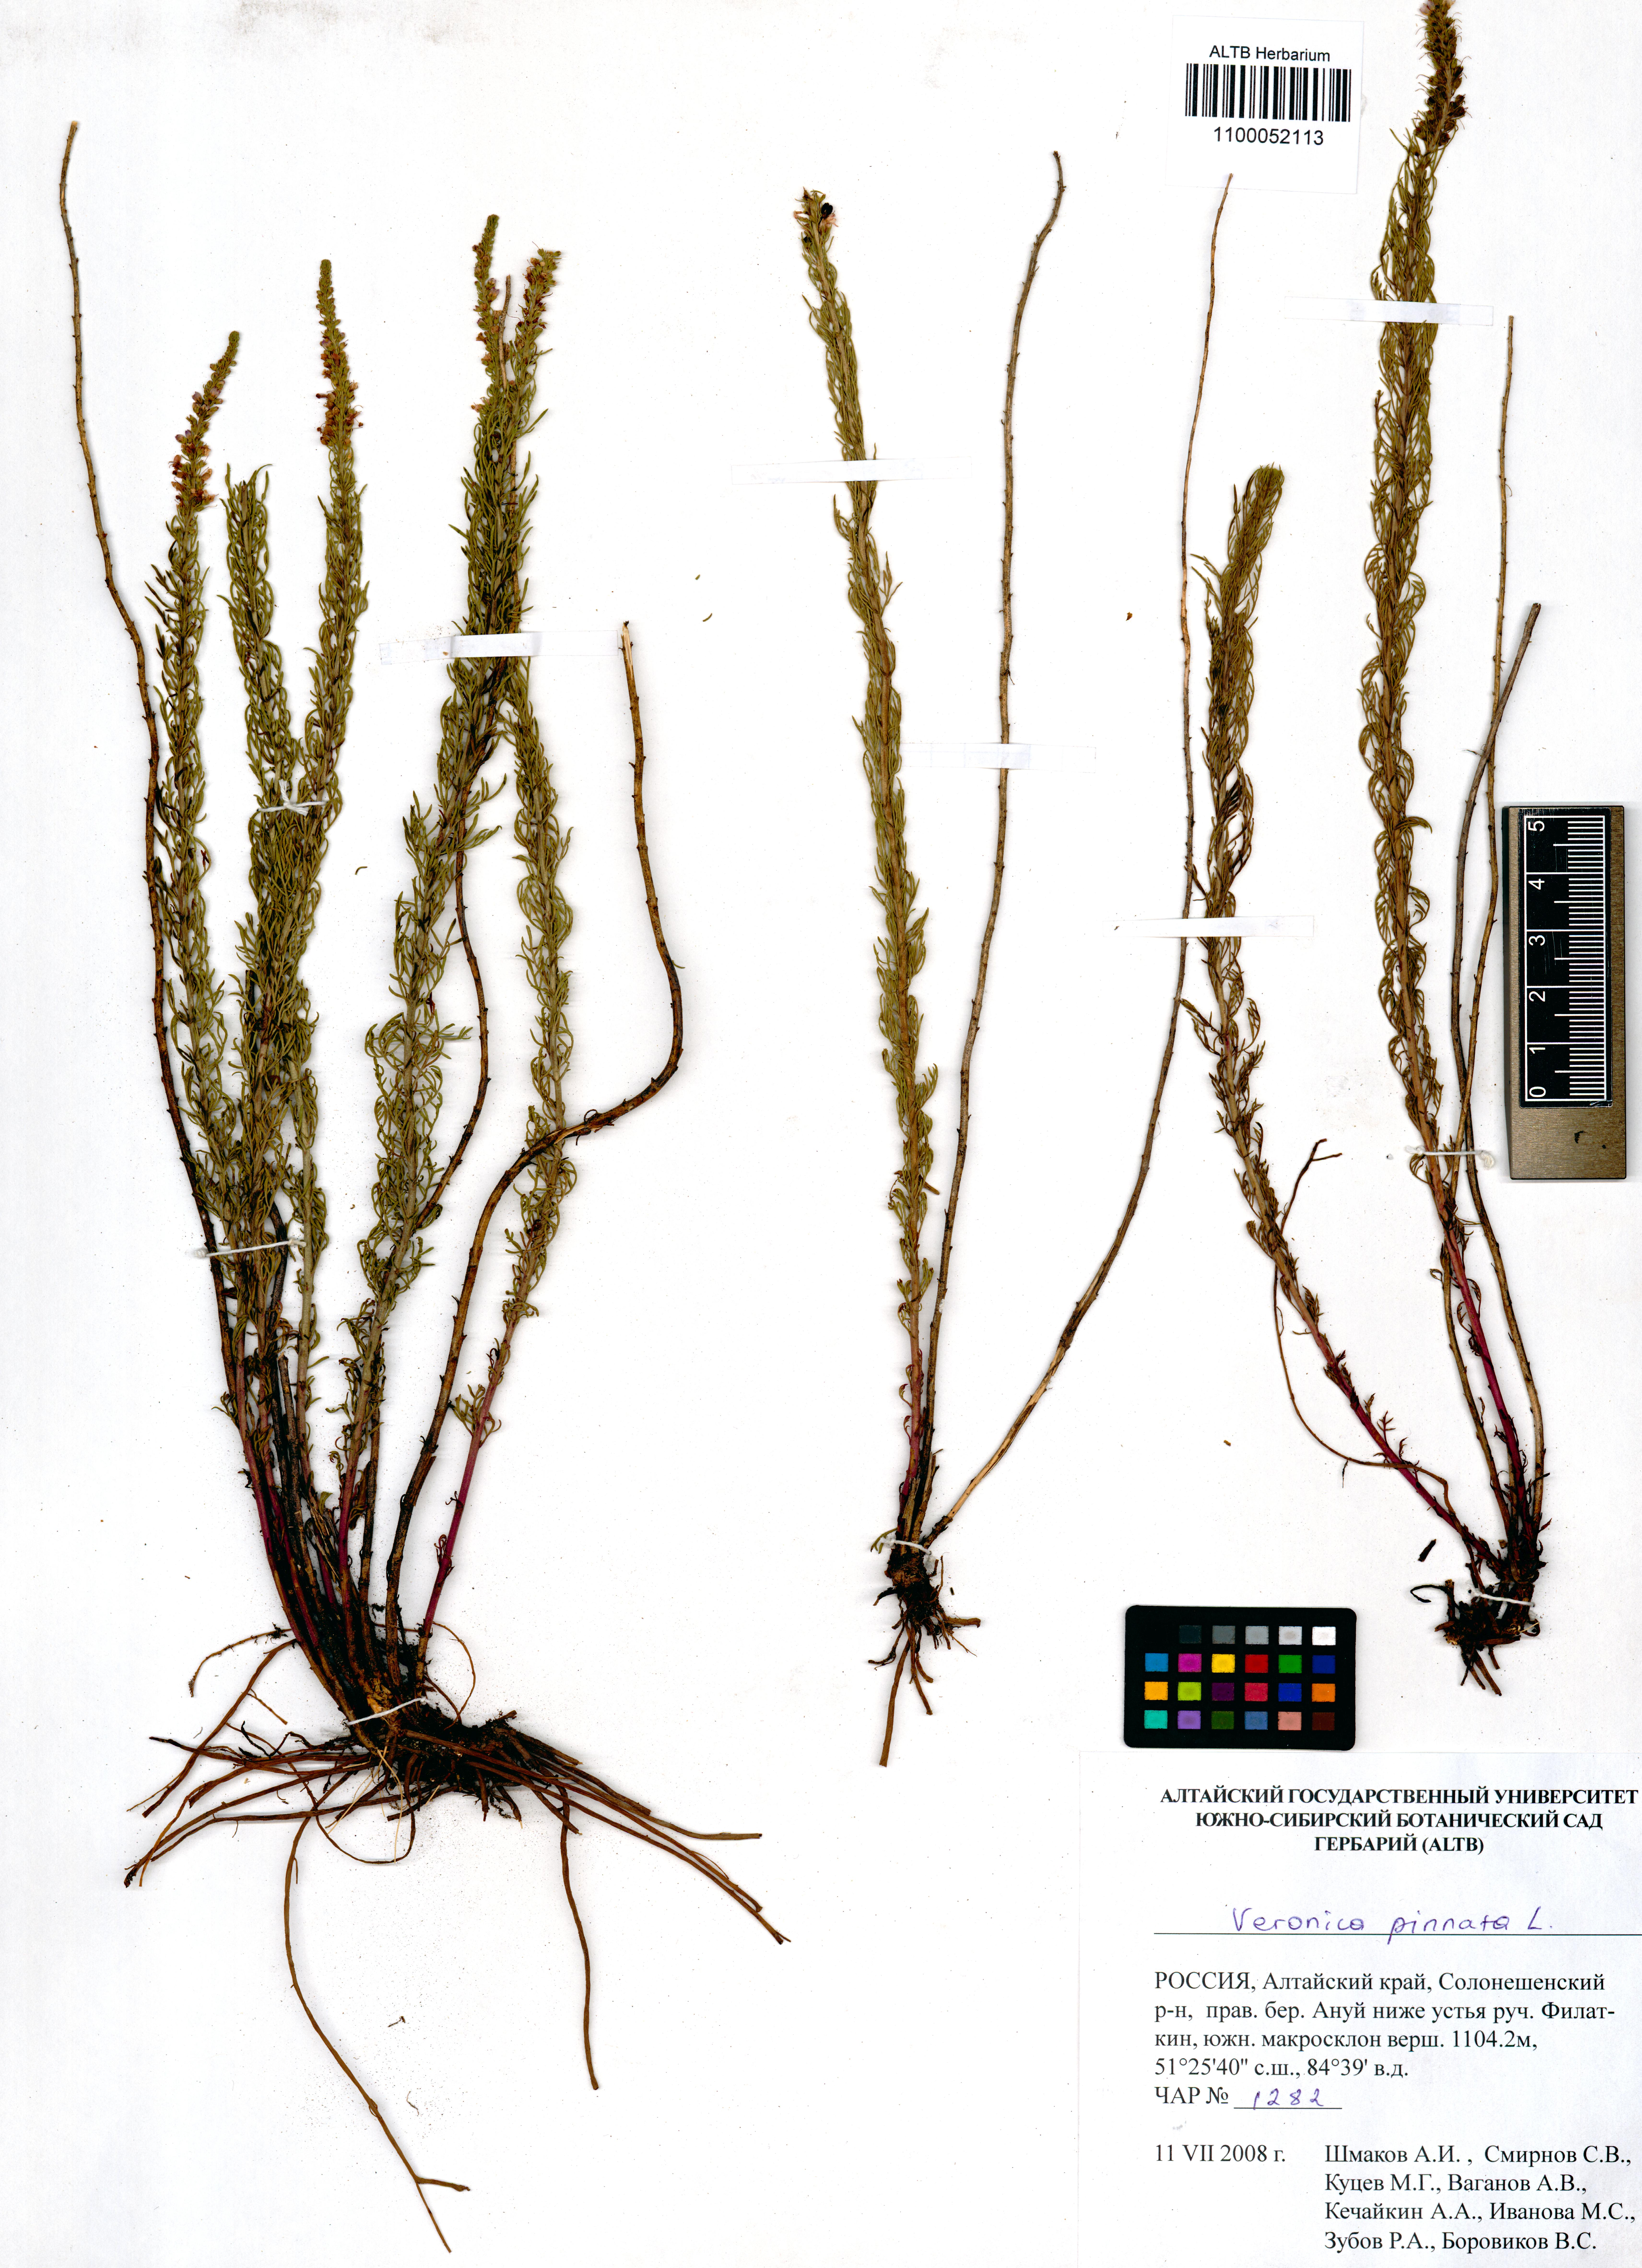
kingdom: Plantae
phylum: Tracheophyta
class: Magnoliopsida
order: Lamiales
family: Plantaginaceae
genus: Veronica
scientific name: Veronica pinnata
